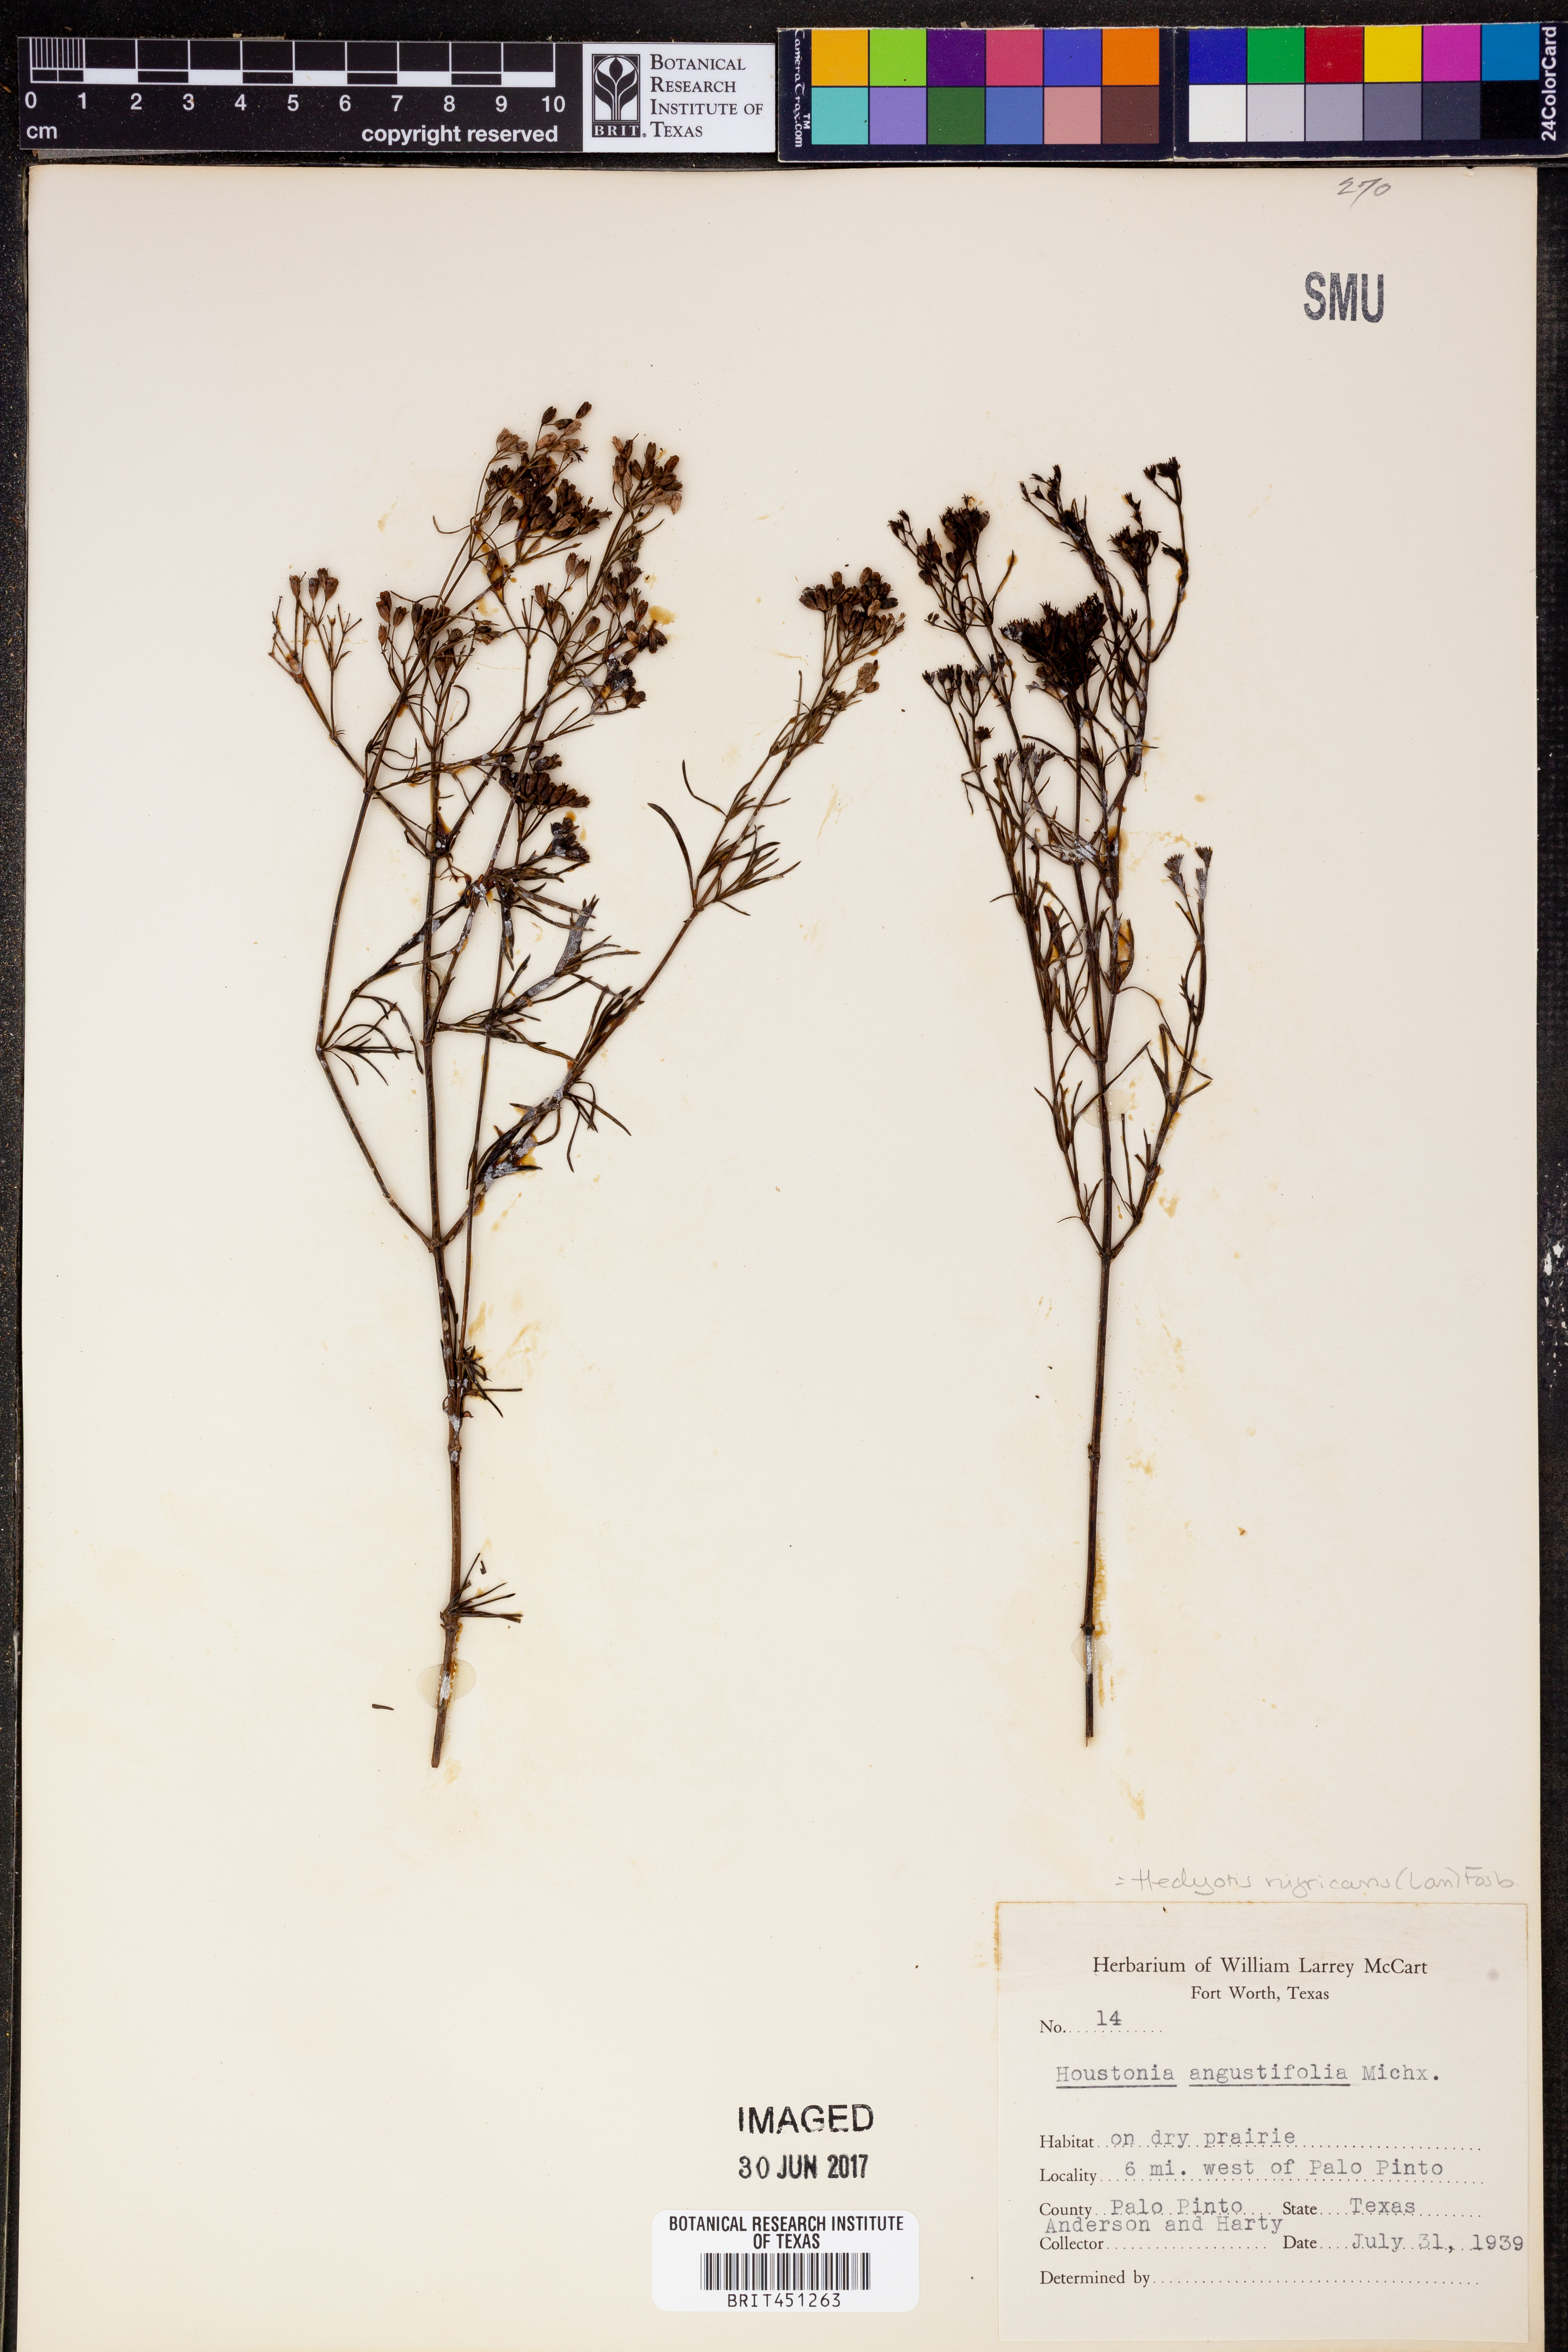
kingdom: Plantae
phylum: Tracheophyta
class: Magnoliopsida
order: Gentianales
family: Rubiaceae
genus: Stenaria
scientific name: Stenaria nigricans
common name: Diamondflowers
